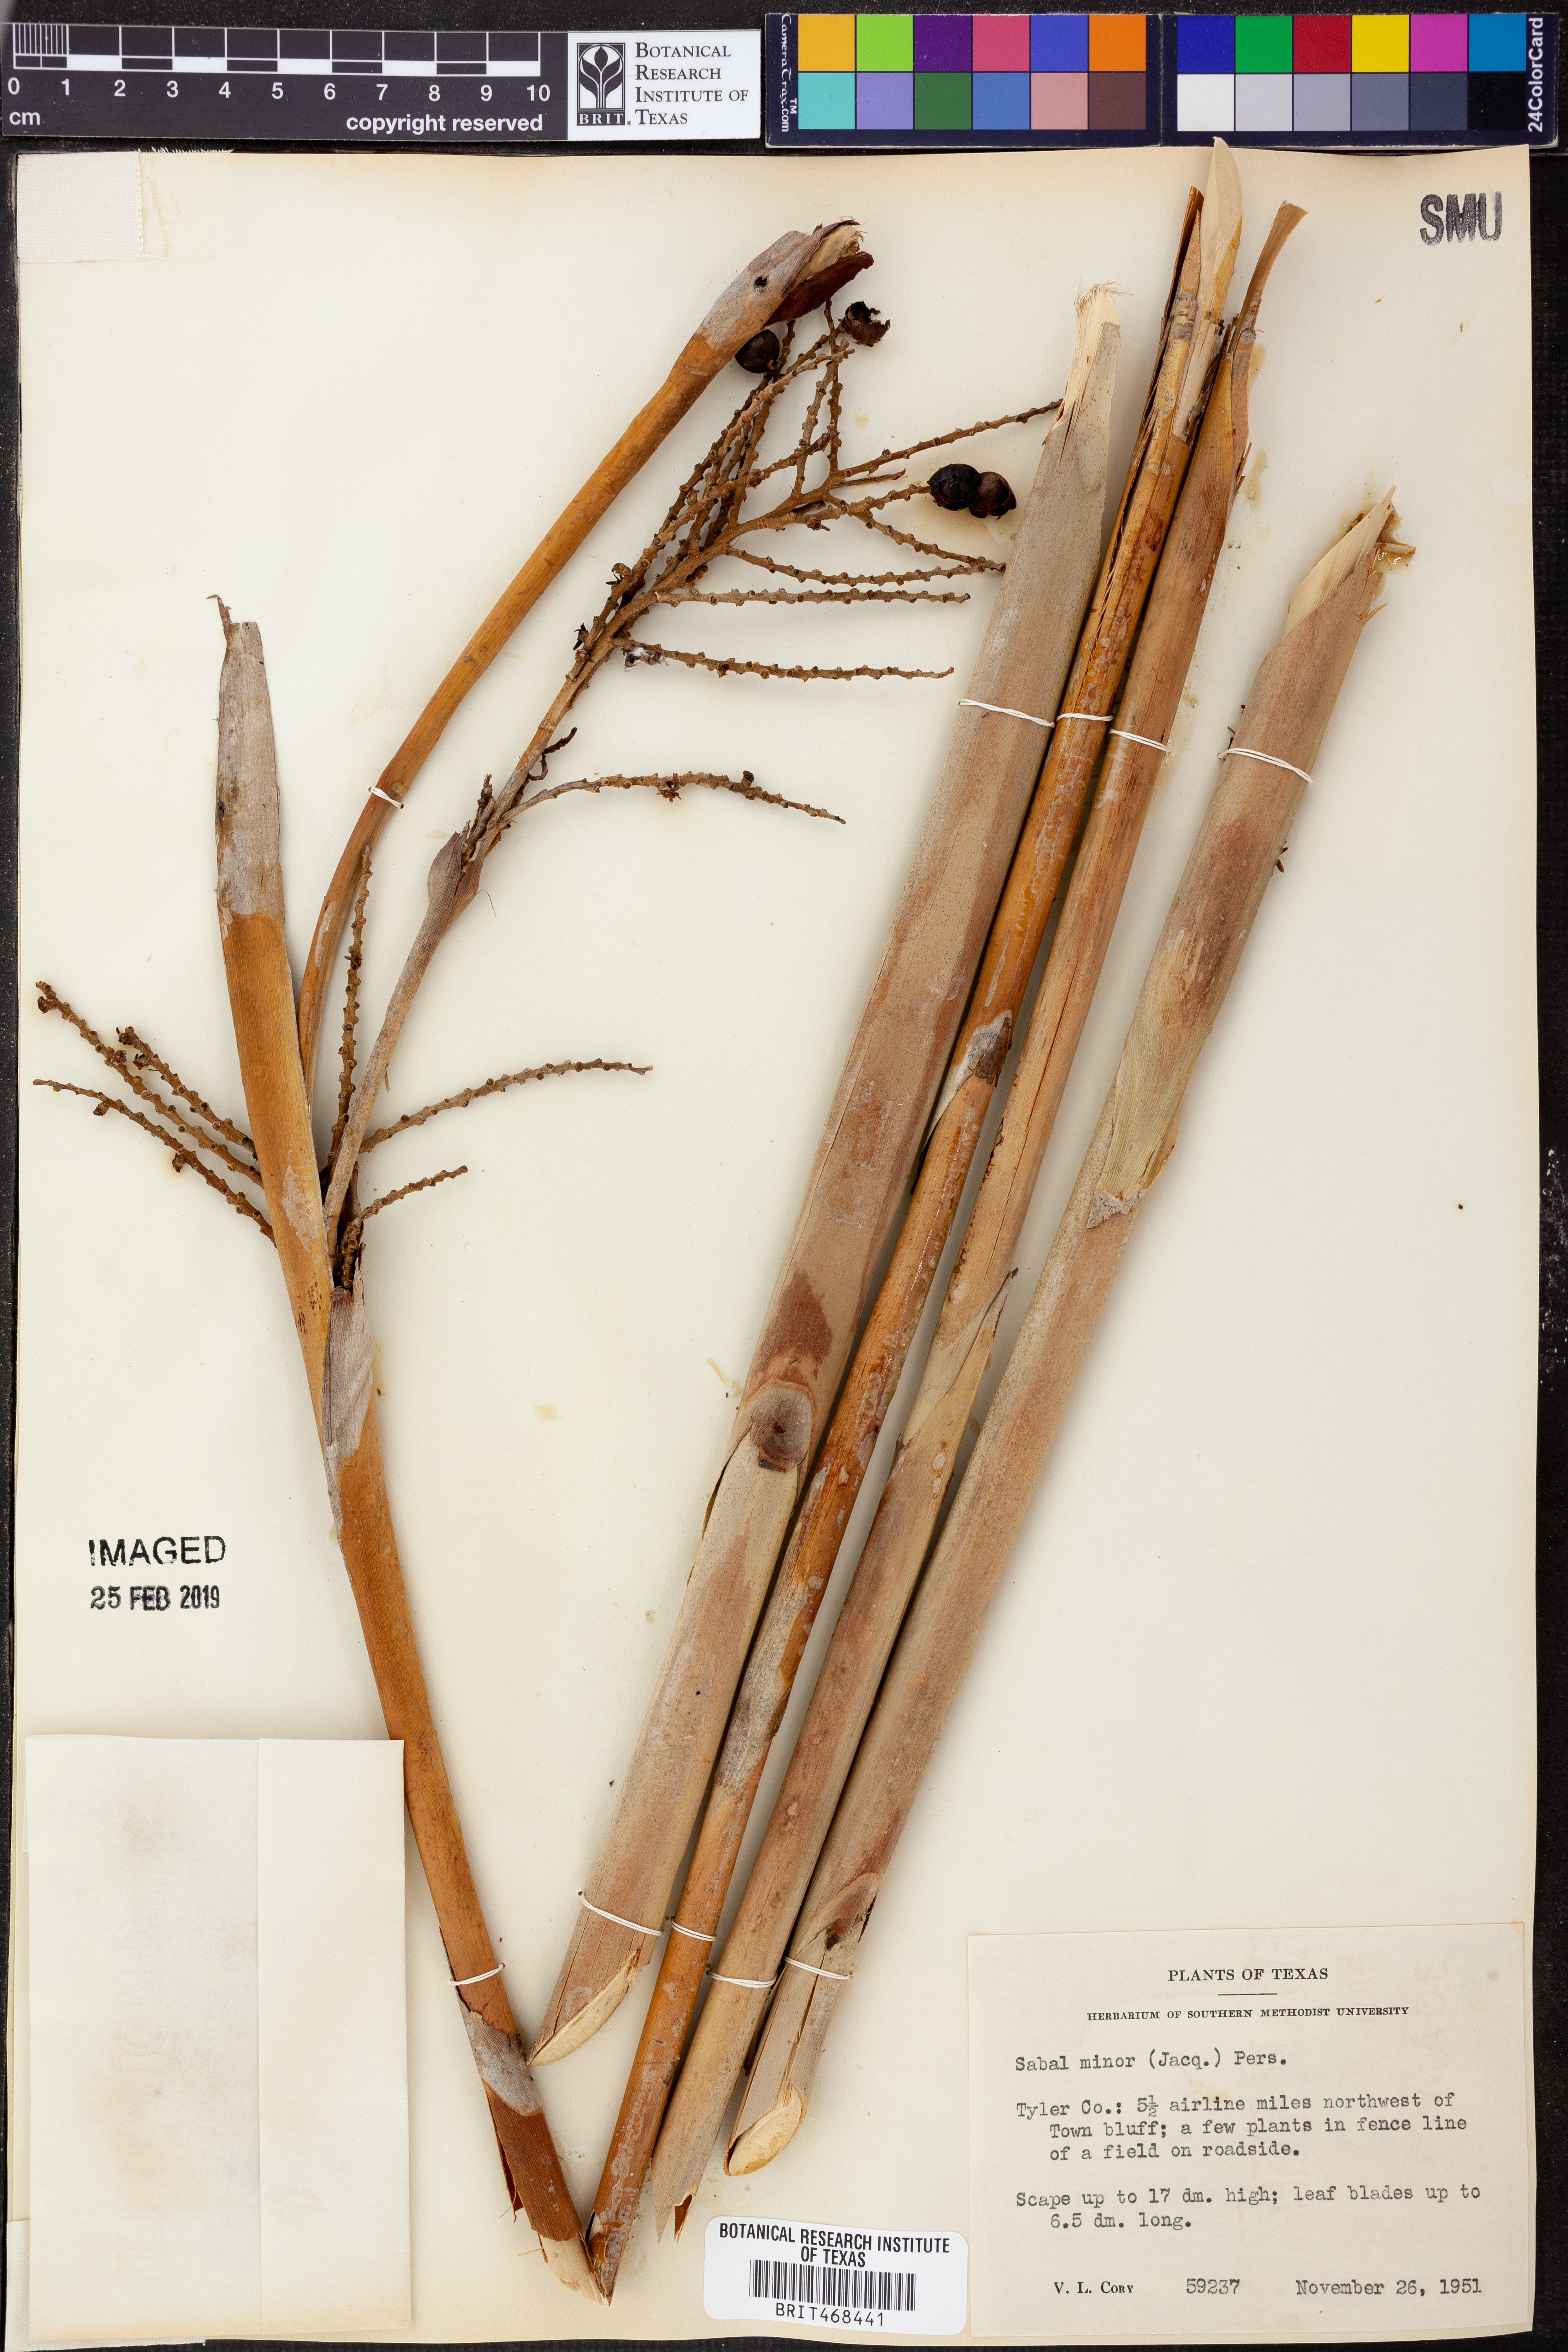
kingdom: Plantae
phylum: Tracheophyta
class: Liliopsida
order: Arecales
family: Arecaceae
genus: Sabal
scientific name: Sabal minor
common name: Dwarf palmetto
